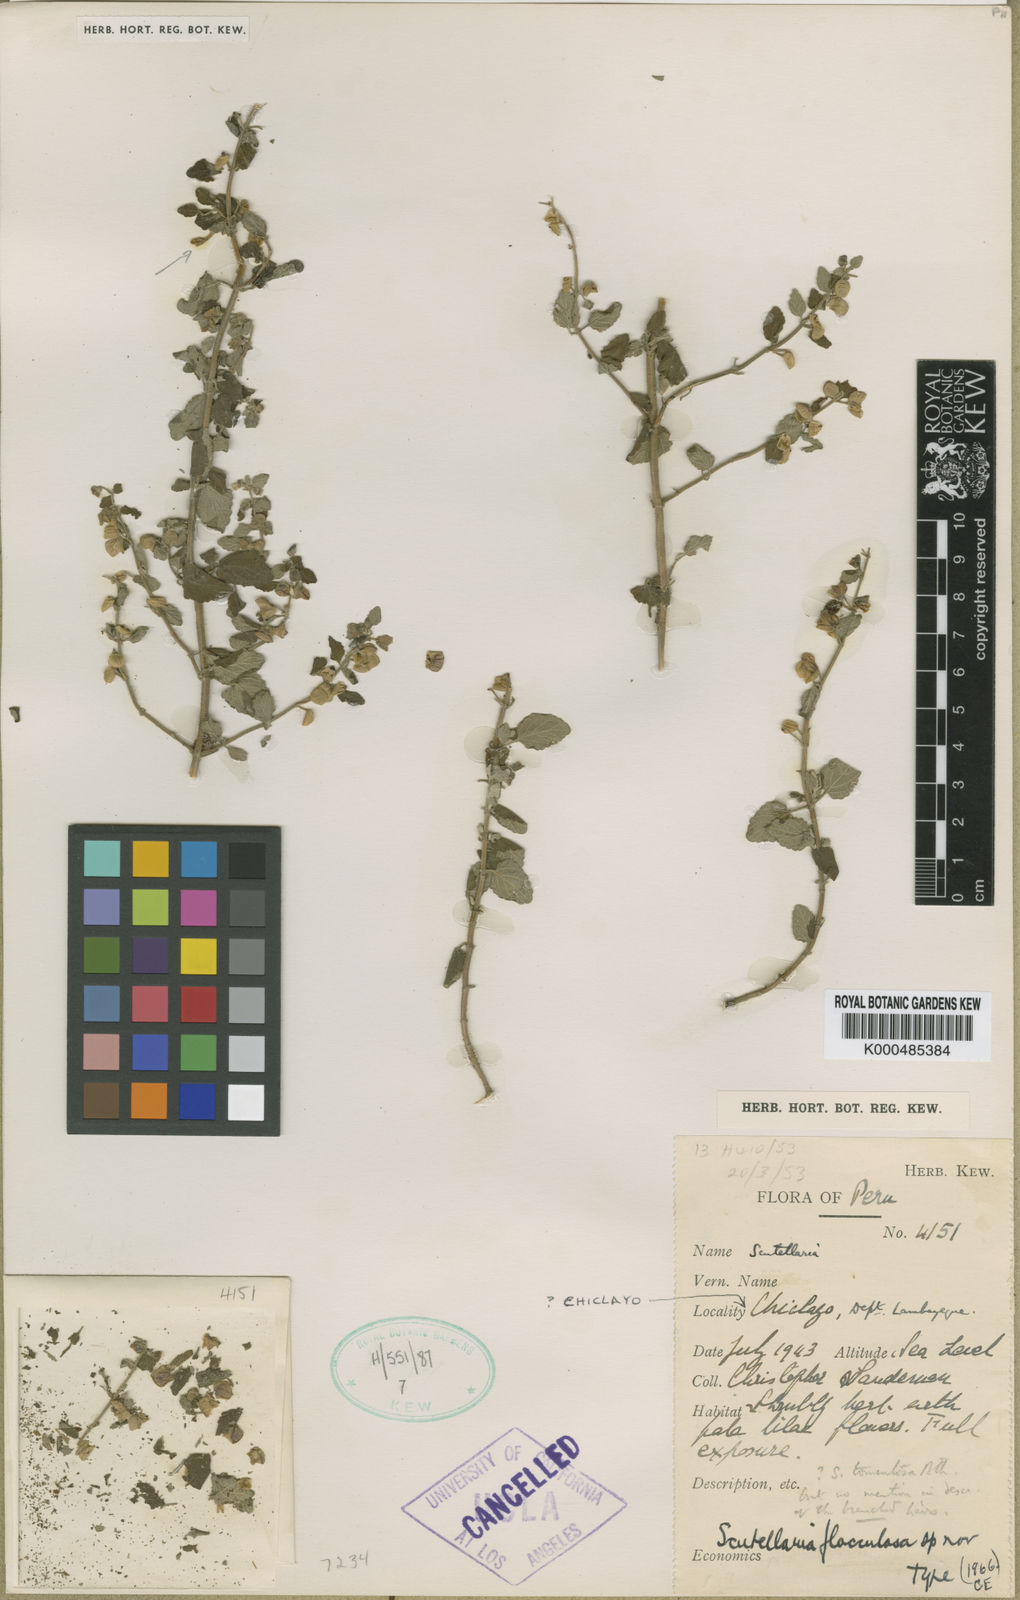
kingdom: Plantae
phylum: Tracheophyta
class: Magnoliopsida
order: Lamiales
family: Lamiaceae
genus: Scutellaria
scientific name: Scutellaria flocculosa
